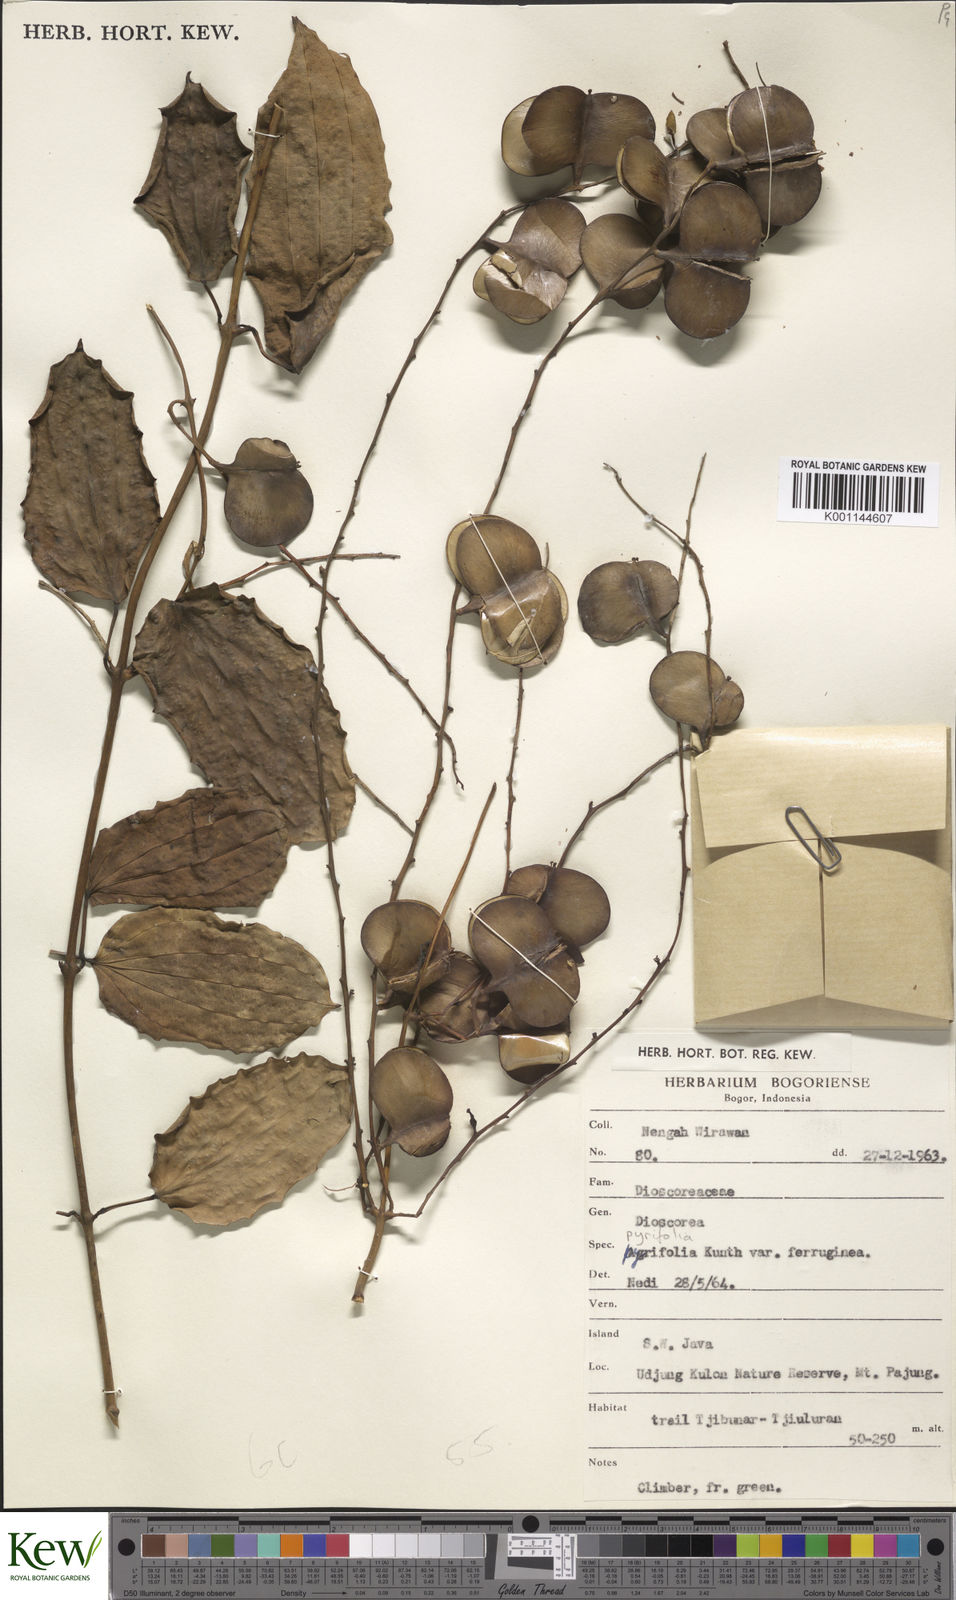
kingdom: Plantae
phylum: Tracheophyta
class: Liliopsida
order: Dioscoreales
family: Dioscoreaceae
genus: Dioscorea
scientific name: Dioscorea pyrifolia
